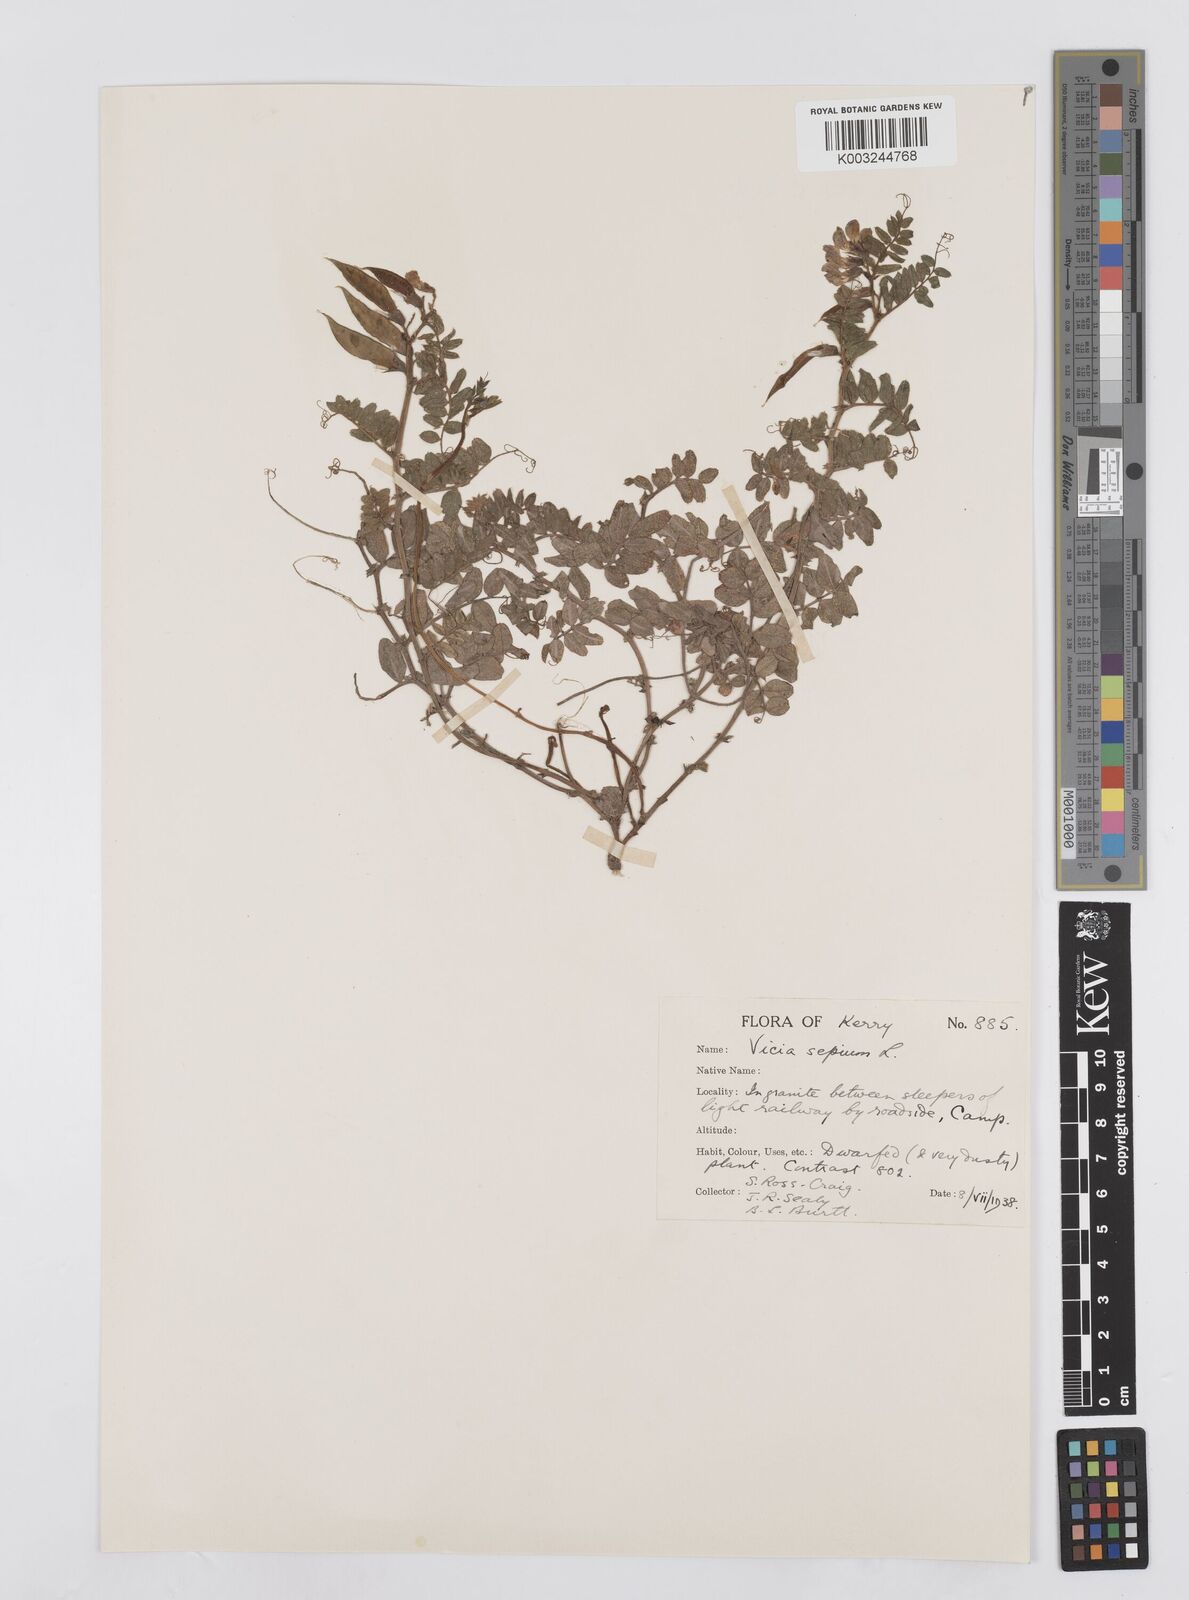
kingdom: Plantae
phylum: Tracheophyta
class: Magnoliopsida
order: Fabales
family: Fabaceae
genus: Vicia
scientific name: Vicia sepium
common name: Bush vetch
